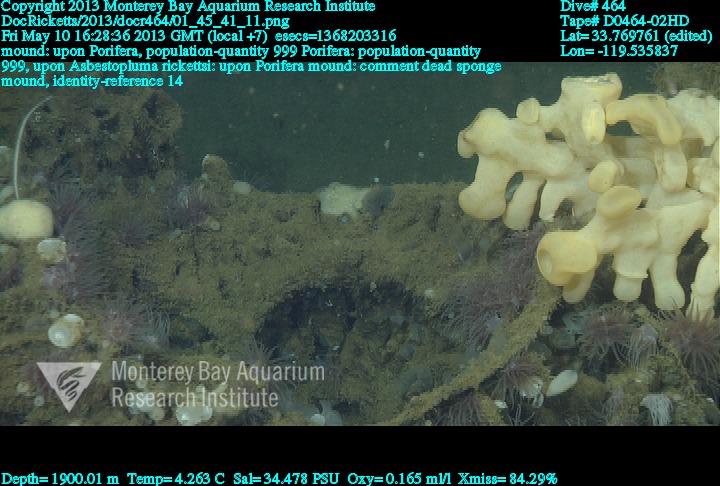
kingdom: Animalia
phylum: Porifera
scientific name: Porifera
